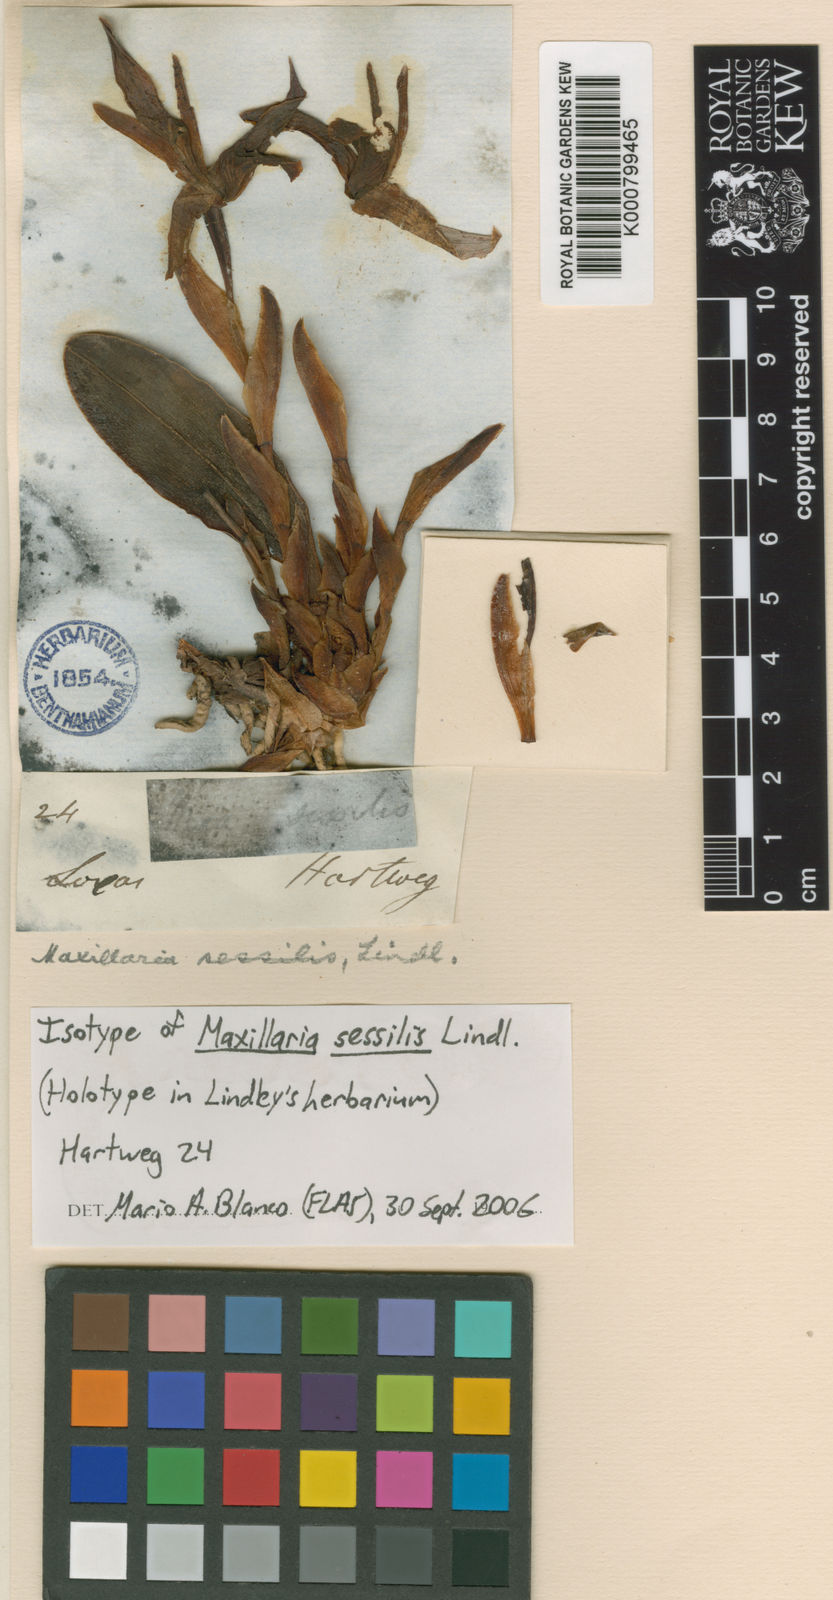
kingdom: Plantae
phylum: Tracheophyta
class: Liliopsida
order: Asparagales
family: Orchidaceae
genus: Maxillaria
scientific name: Maxillaria sessilis
